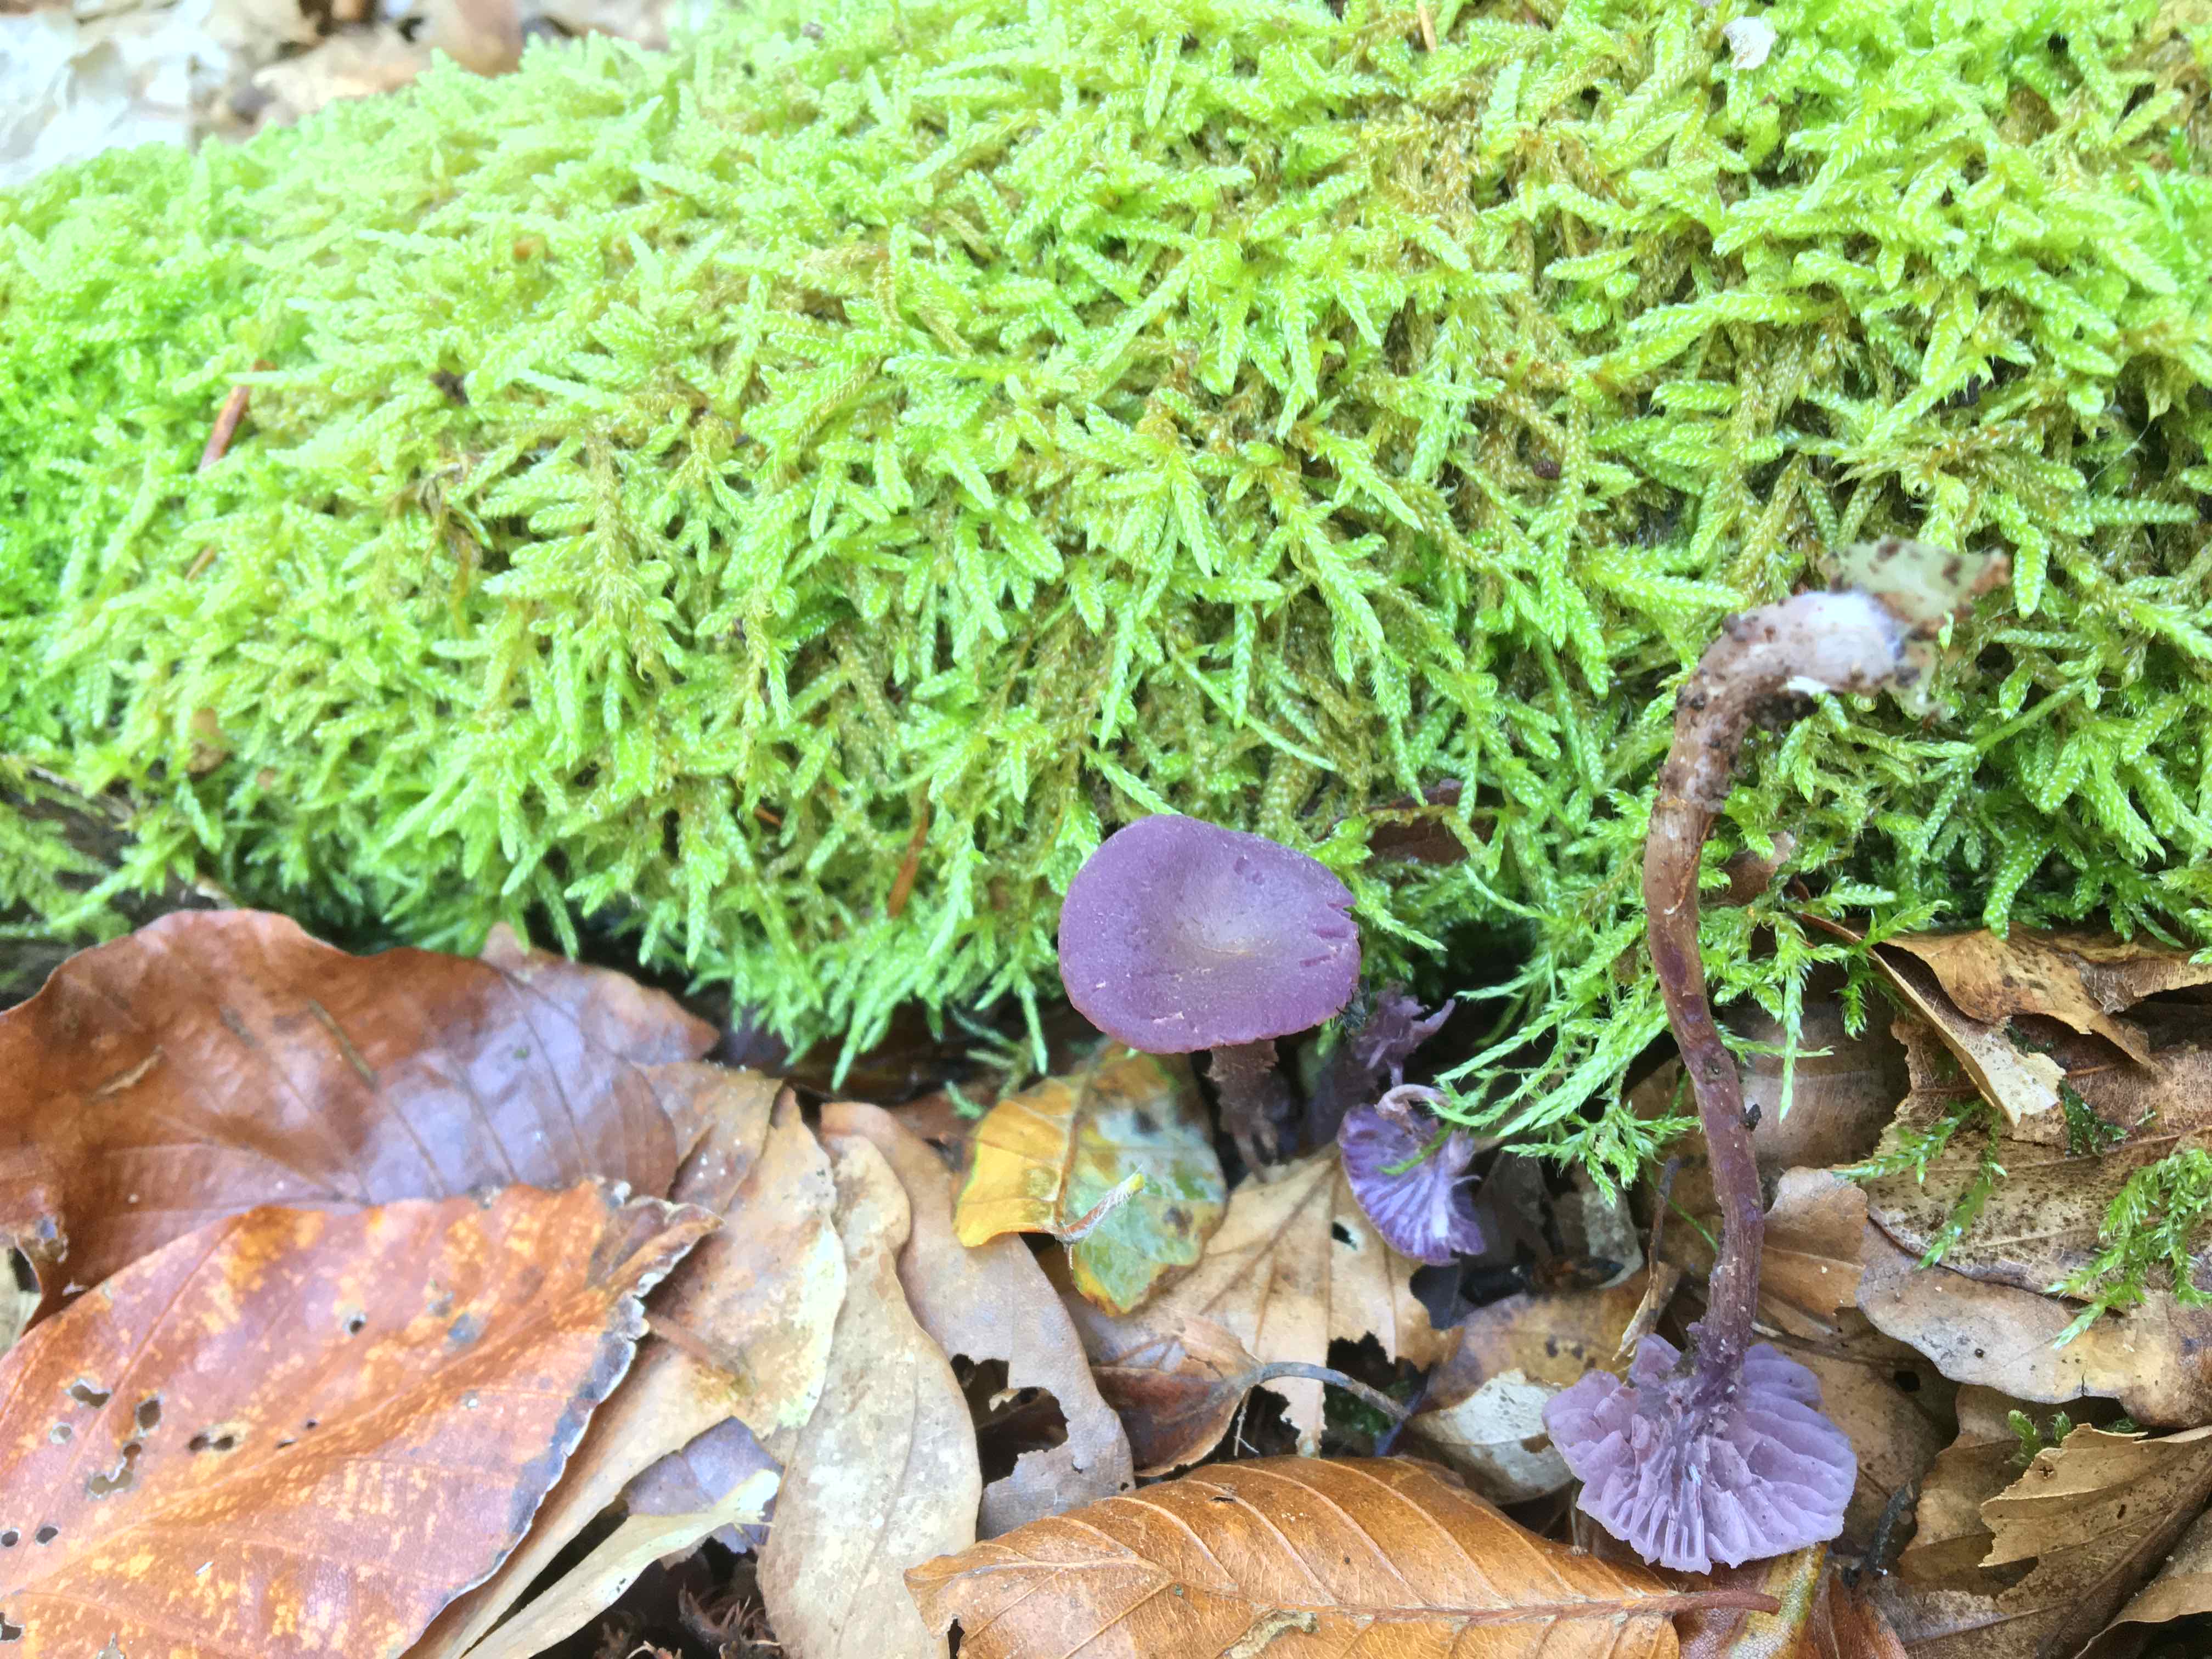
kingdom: Fungi
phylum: Basidiomycota
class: Agaricomycetes
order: Agaricales
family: Hydnangiaceae
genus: Laccaria
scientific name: Laccaria amethystina
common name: violet ametysthat
